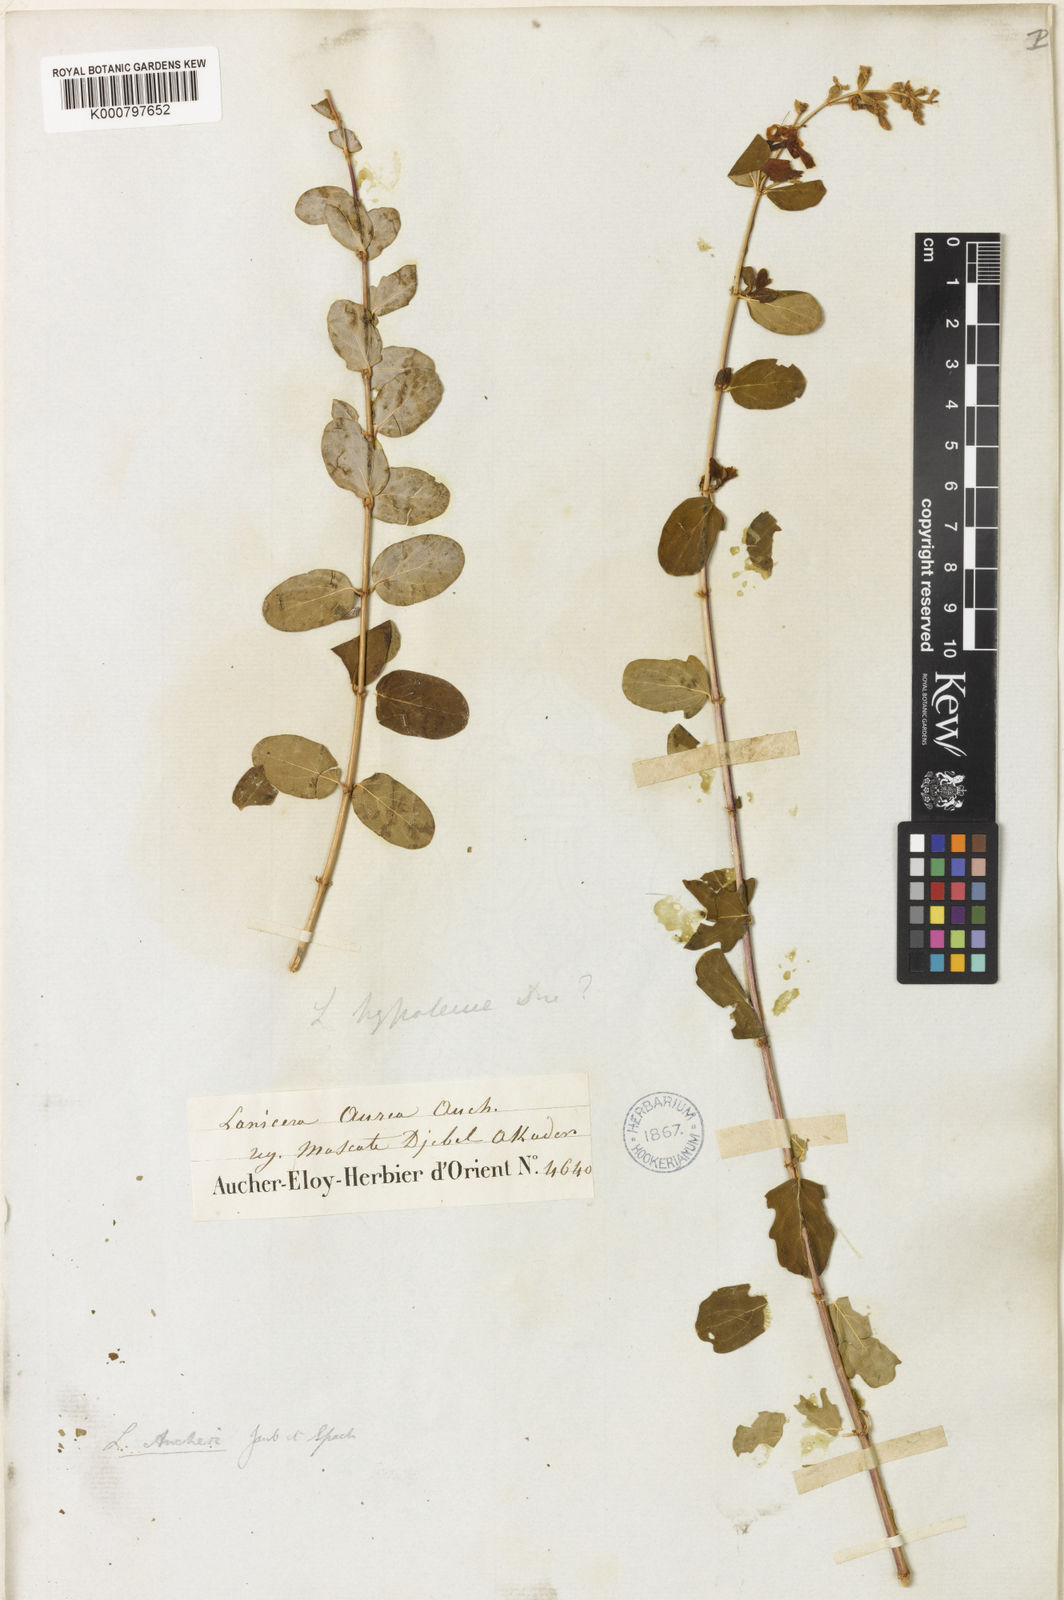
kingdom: Plantae
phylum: Tracheophyta
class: Magnoliopsida
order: Dipsacales
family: Caprifoliaceae
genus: Lonicera
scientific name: Lonicera hypoleuca
